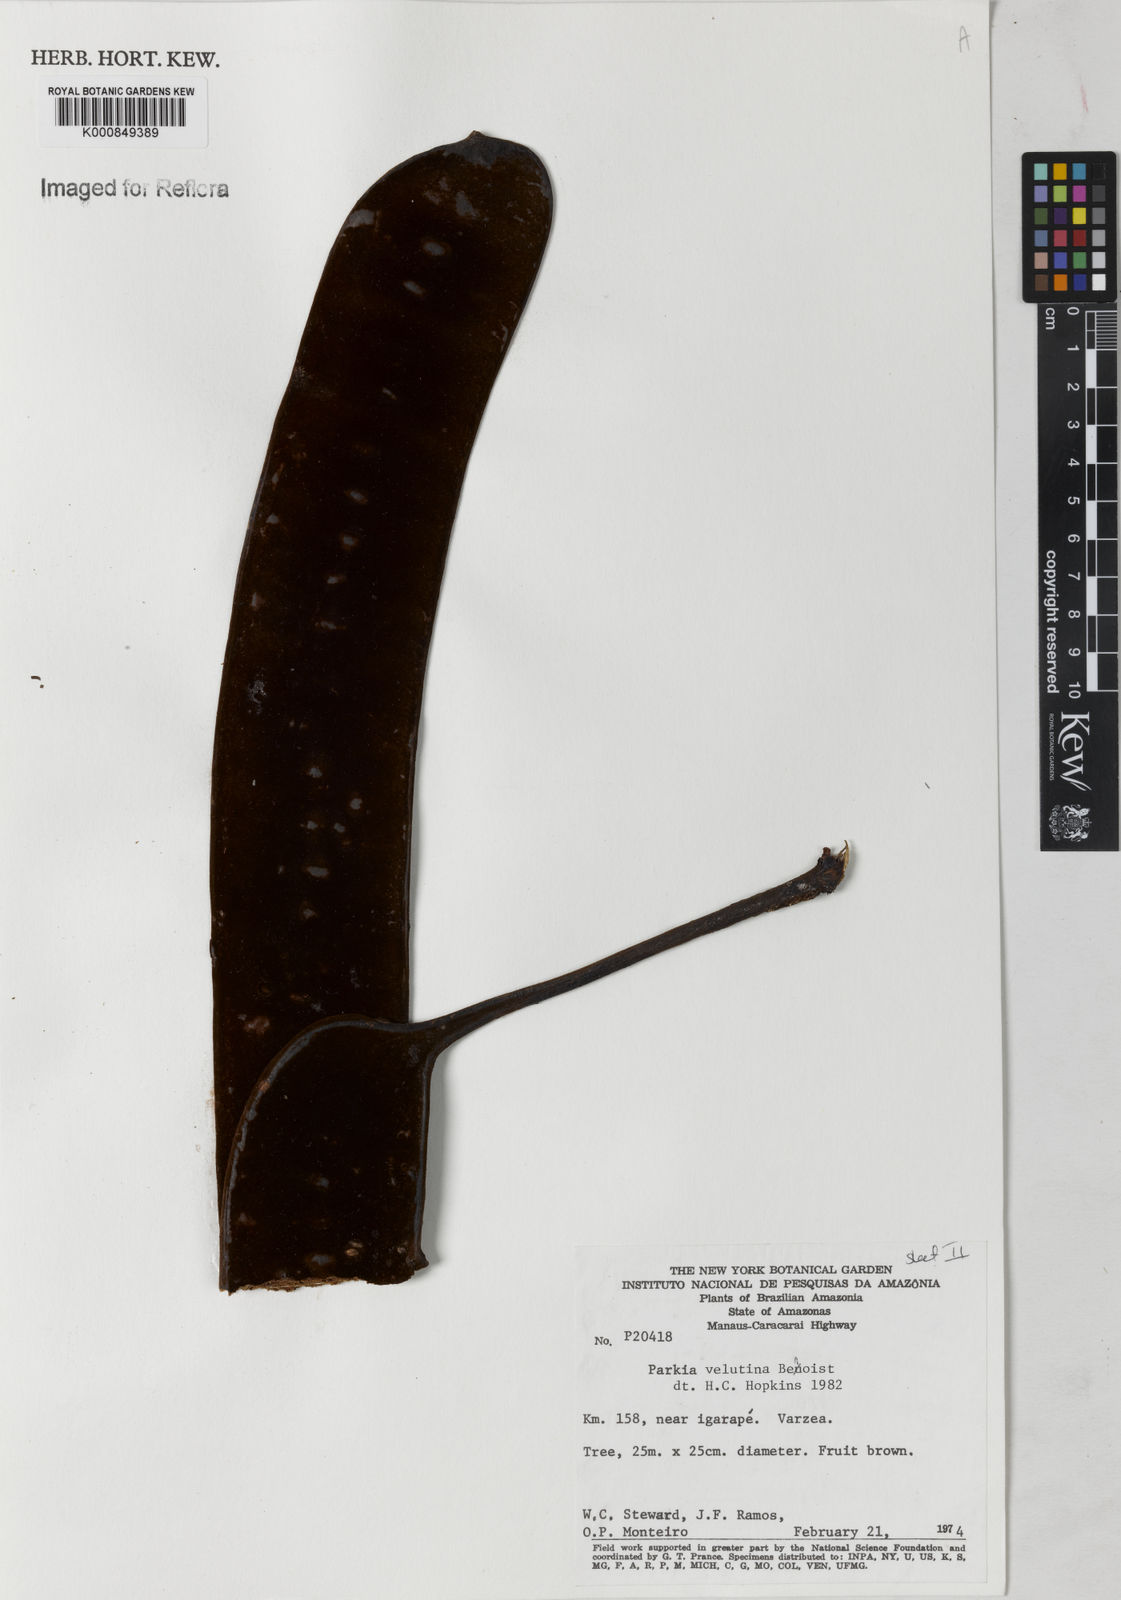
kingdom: Plantae
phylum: Tracheophyta
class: Magnoliopsida
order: Fabales
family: Fabaceae
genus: Parkia
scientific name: Parkia velutina
